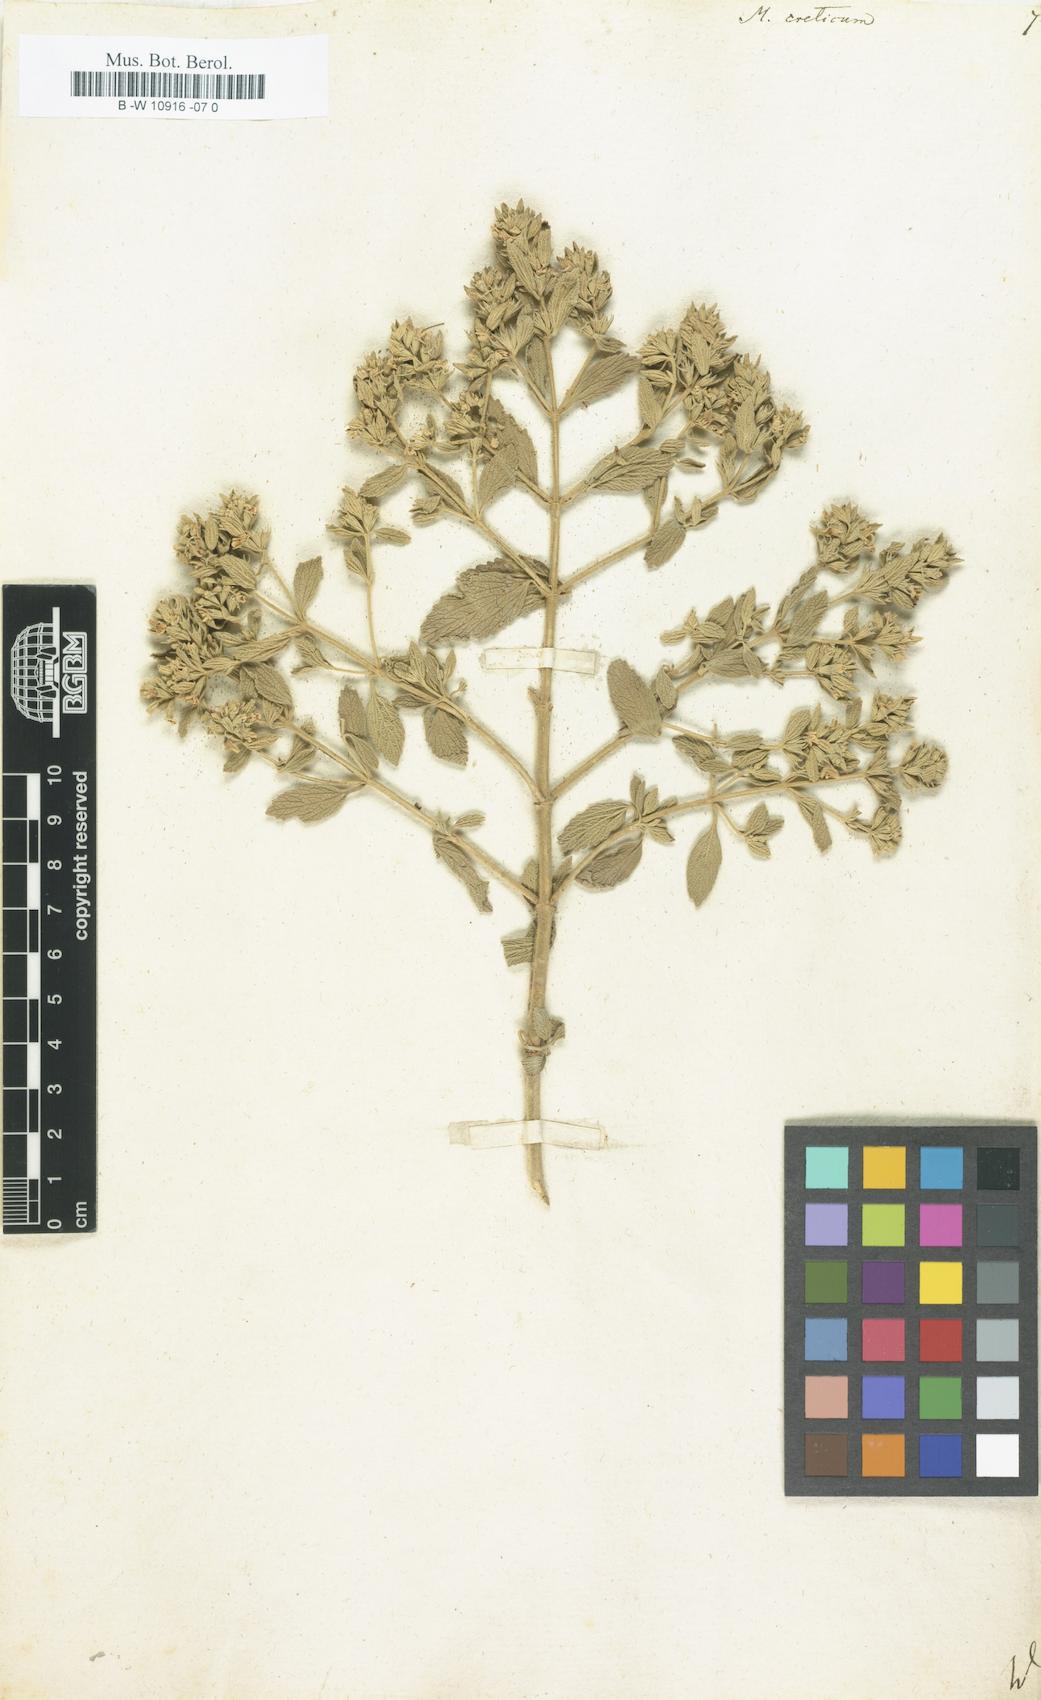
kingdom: Plantae
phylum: Tracheophyta
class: Magnoliopsida
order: Lamiales
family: Lamiaceae
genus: Marrubium
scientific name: Marrubium peregrinum
